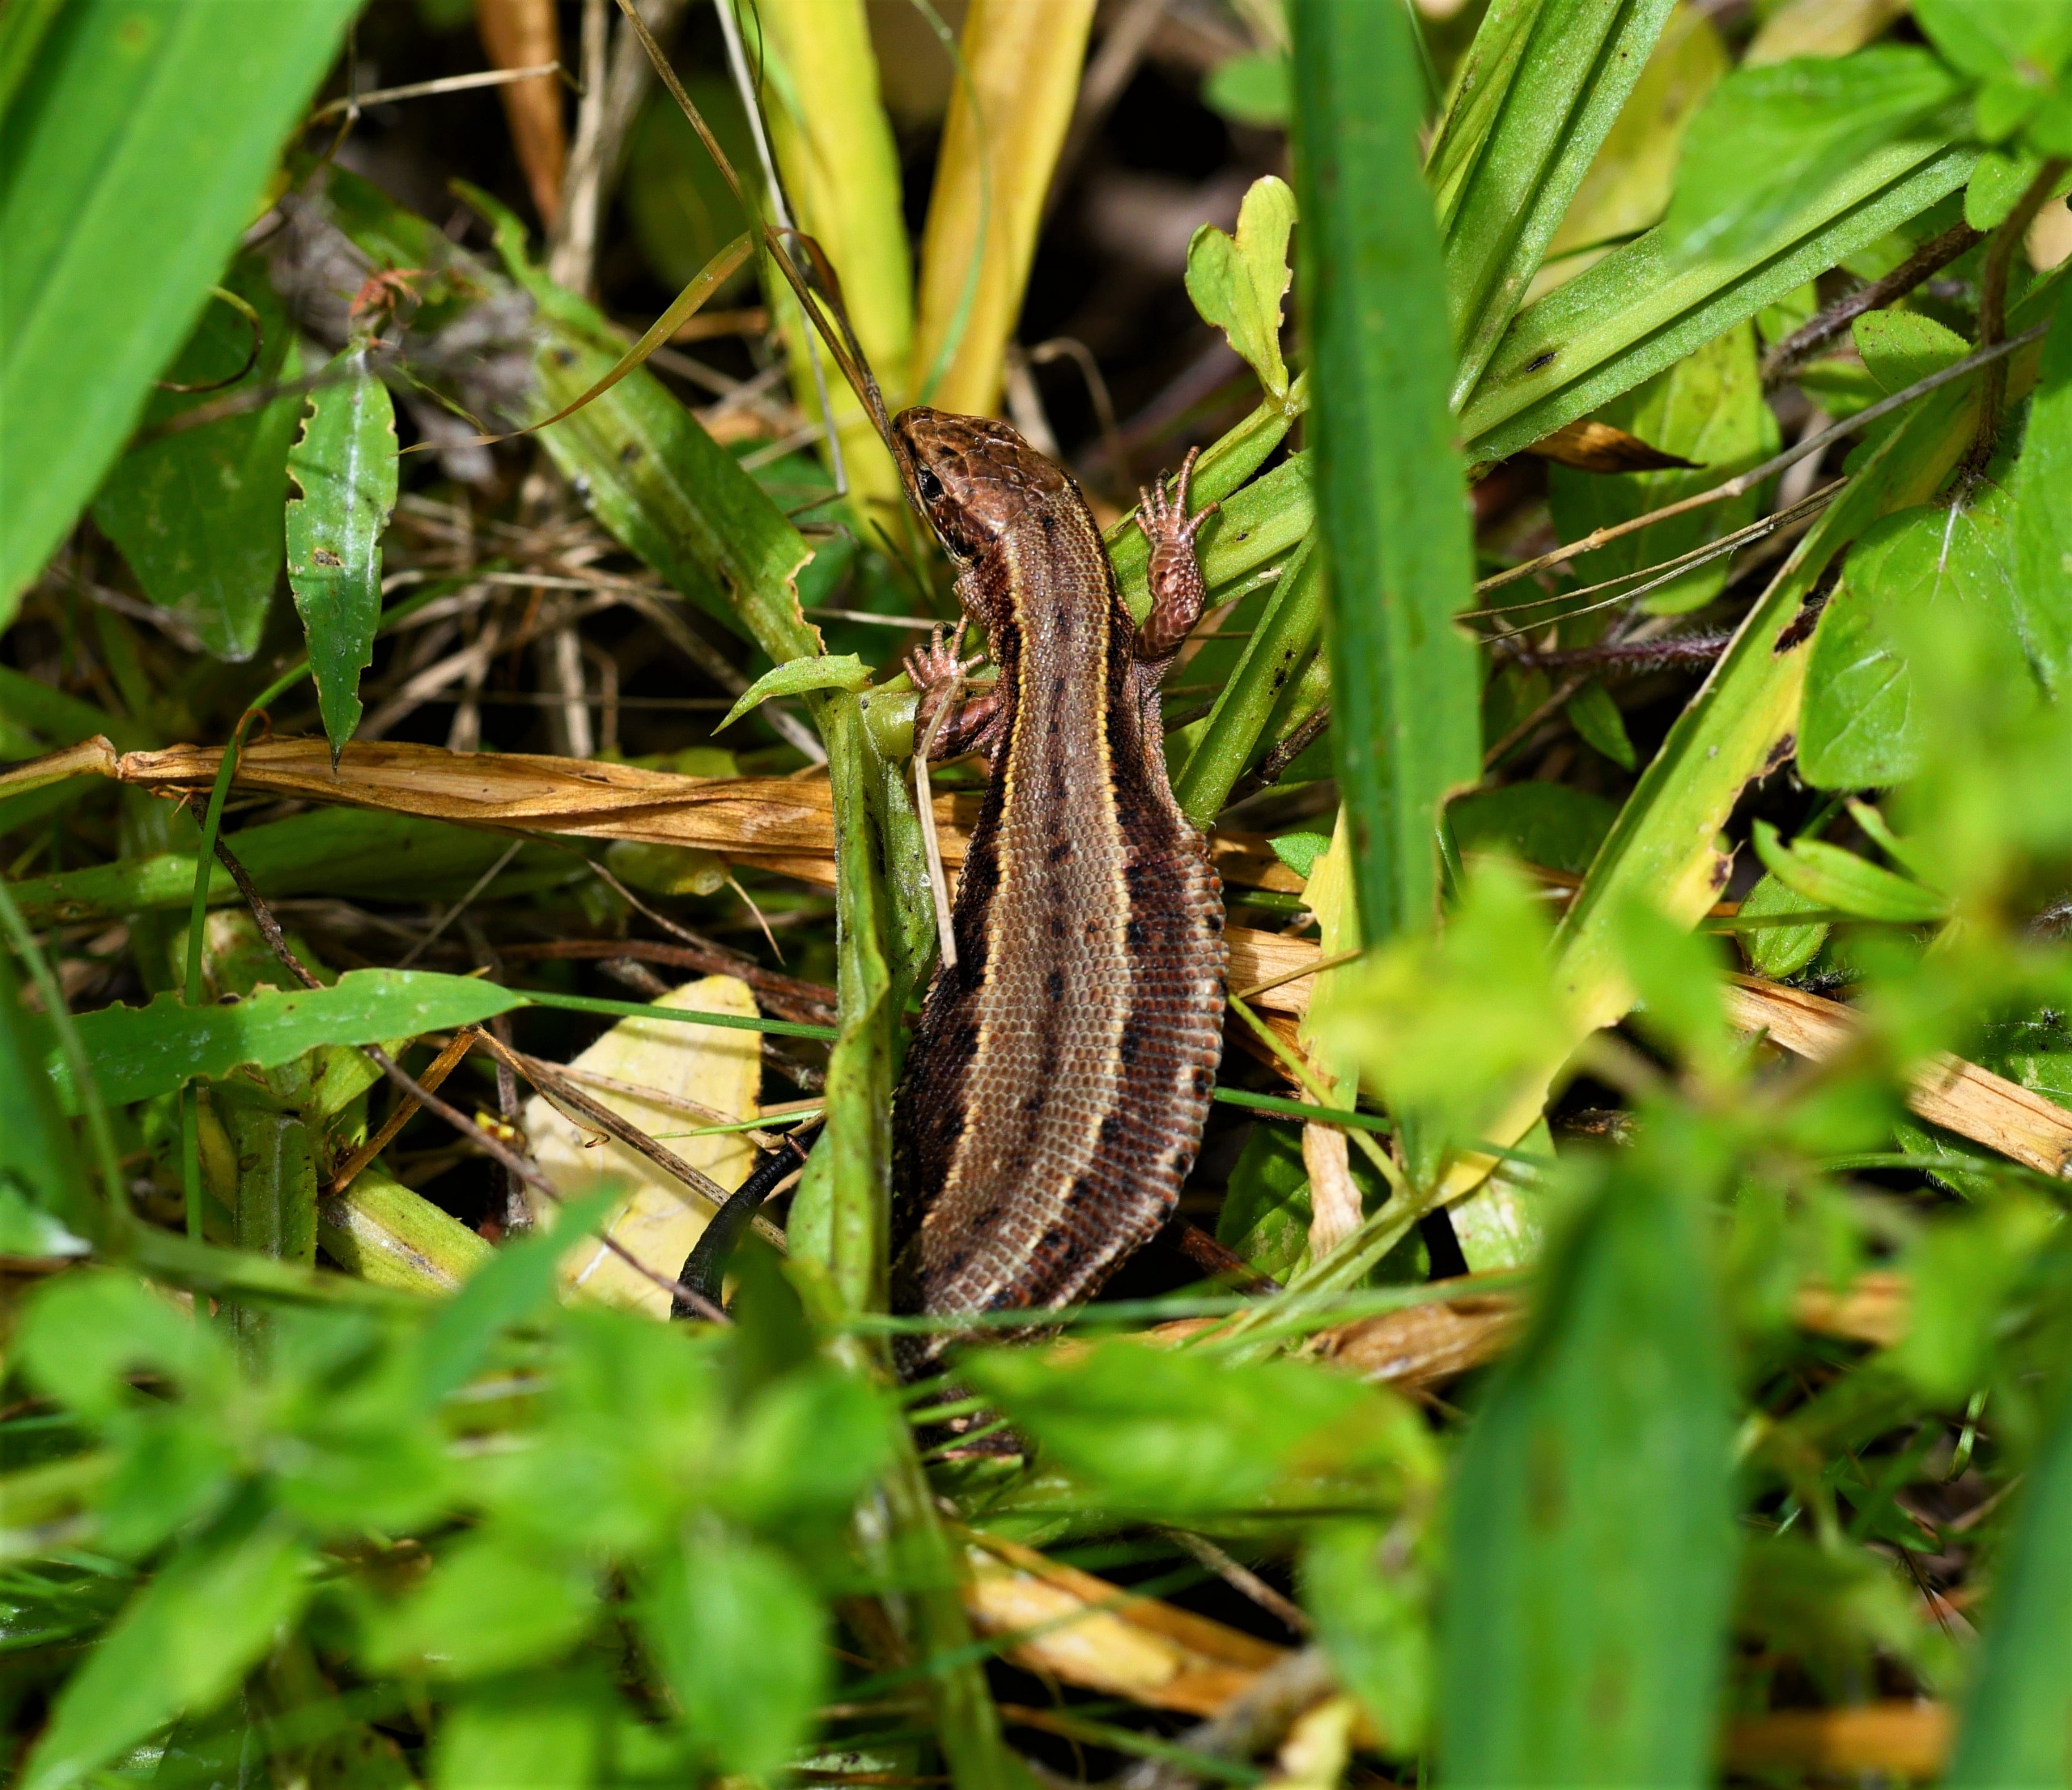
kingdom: Animalia
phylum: Chordata
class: Squamata
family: Lacertidae
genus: Zootoca
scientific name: Zootoca vivipara
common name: Skovfirben
